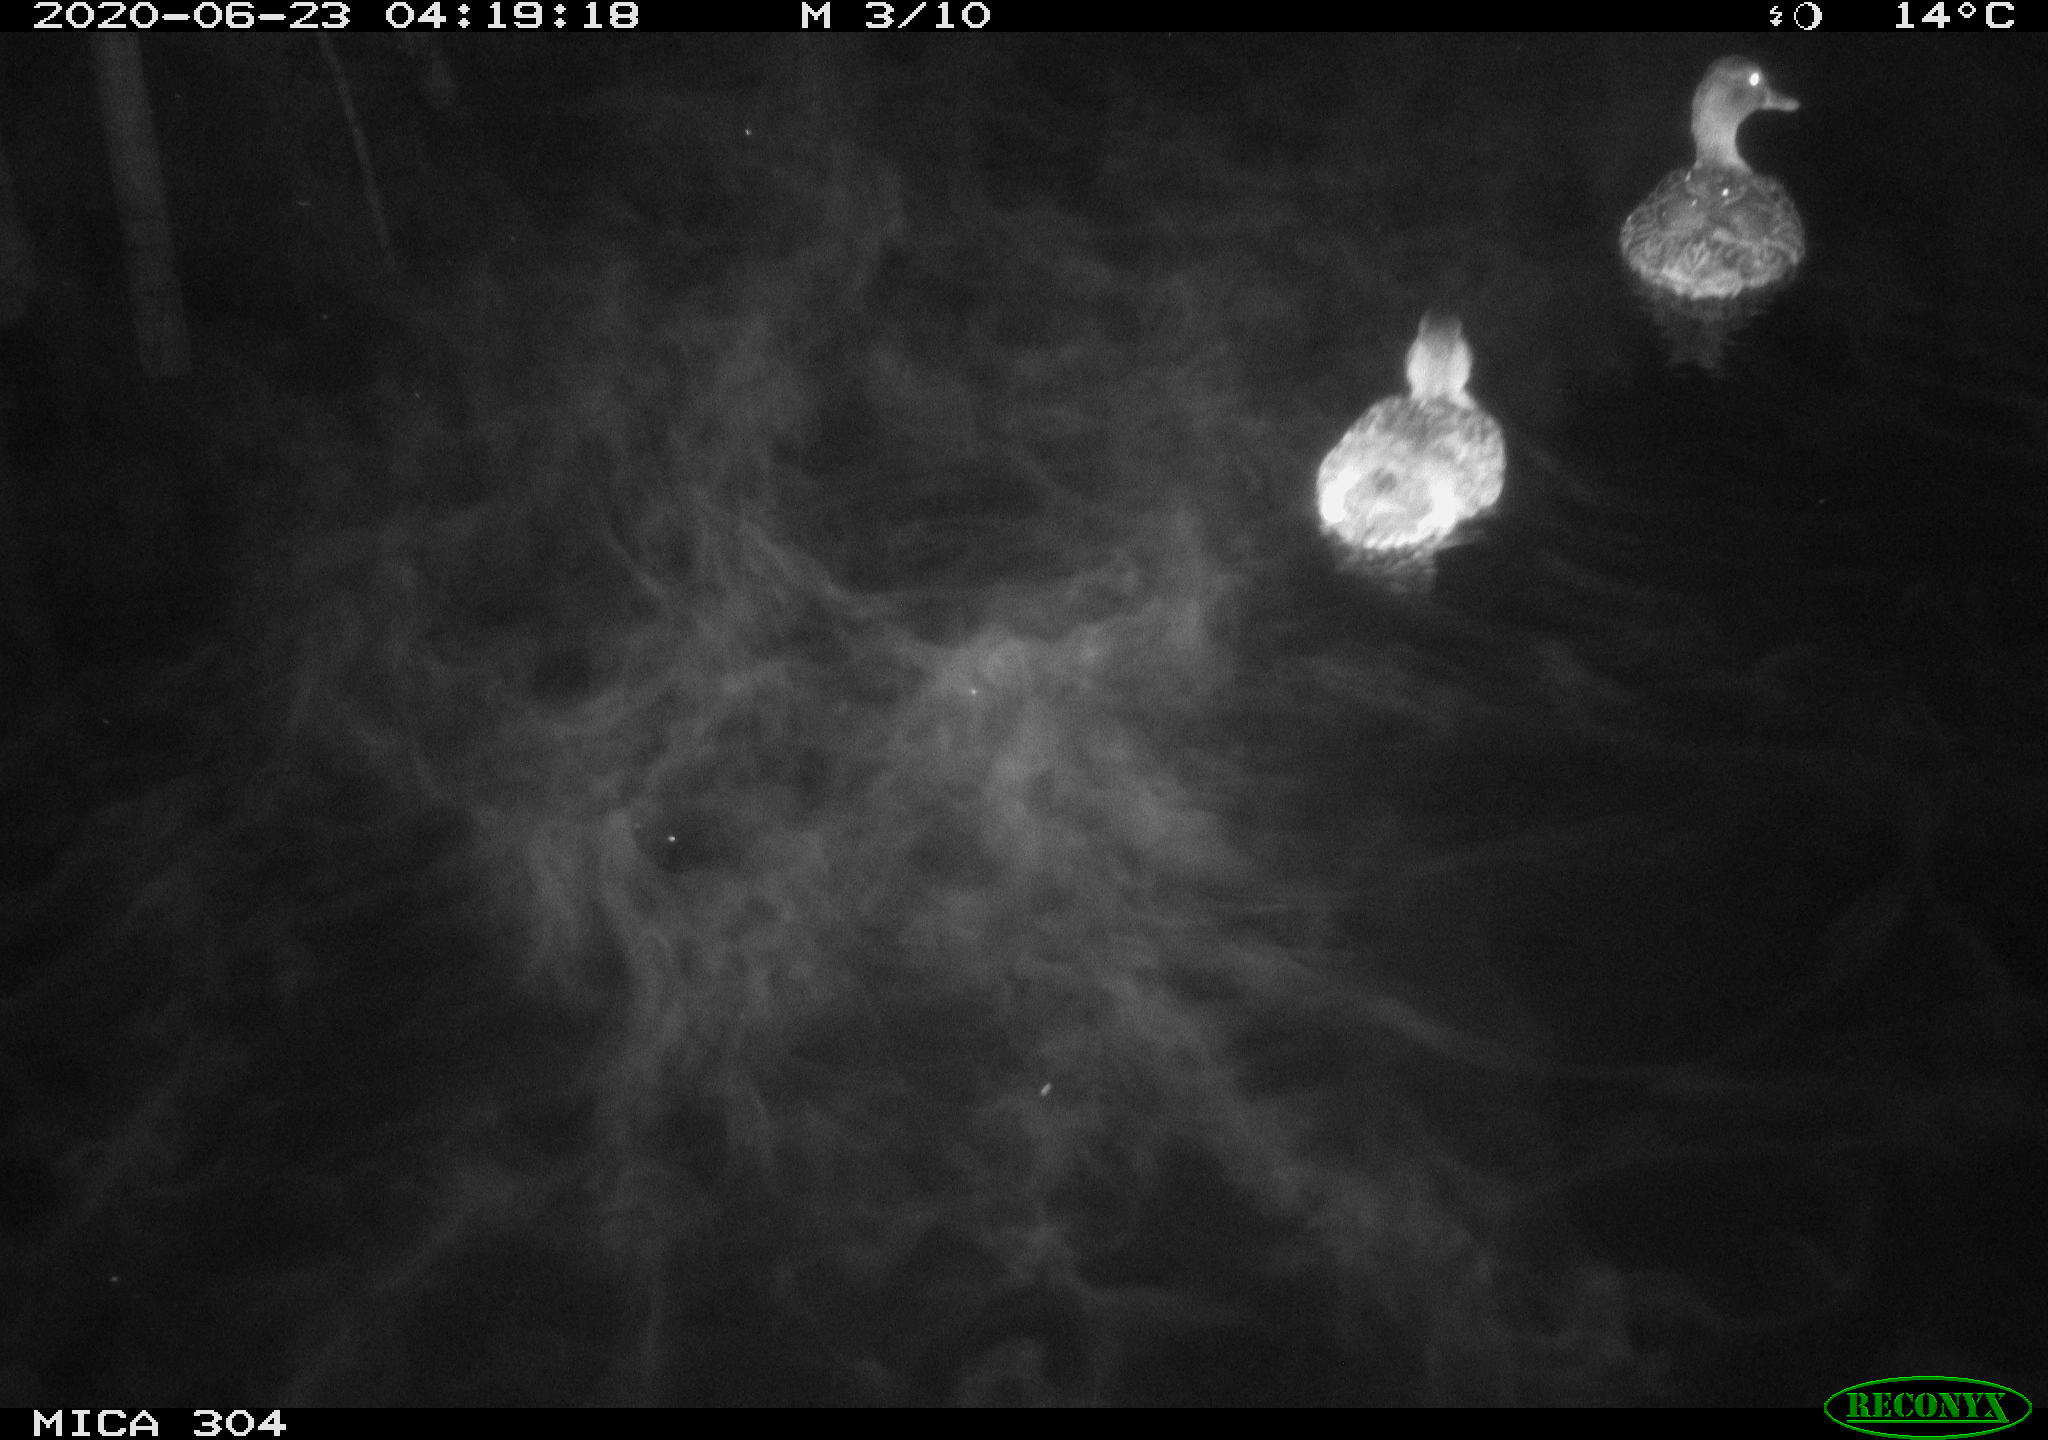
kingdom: Animalia
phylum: Chordata
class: Aves
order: Anseriformes
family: Anatidae
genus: Anas
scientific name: Anas platyrhynchos
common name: Mallard
